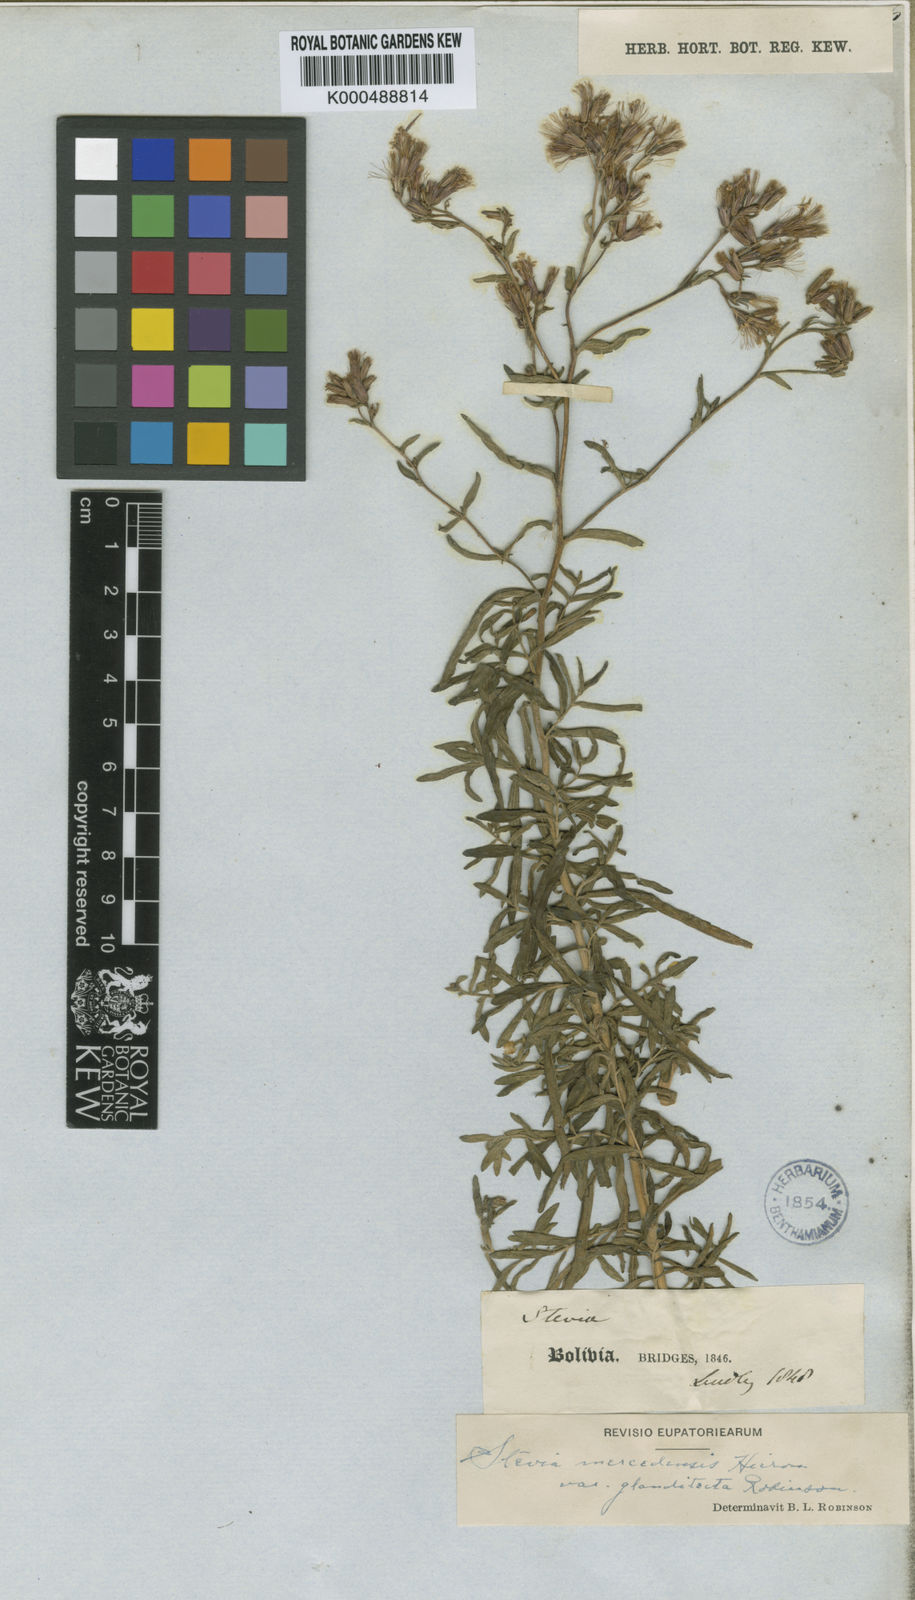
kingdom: Plantae
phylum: Tracheophyta
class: Magnoliopsida
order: Asterales
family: Asteraceae
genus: Stevia
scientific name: Stevia mercedensis
